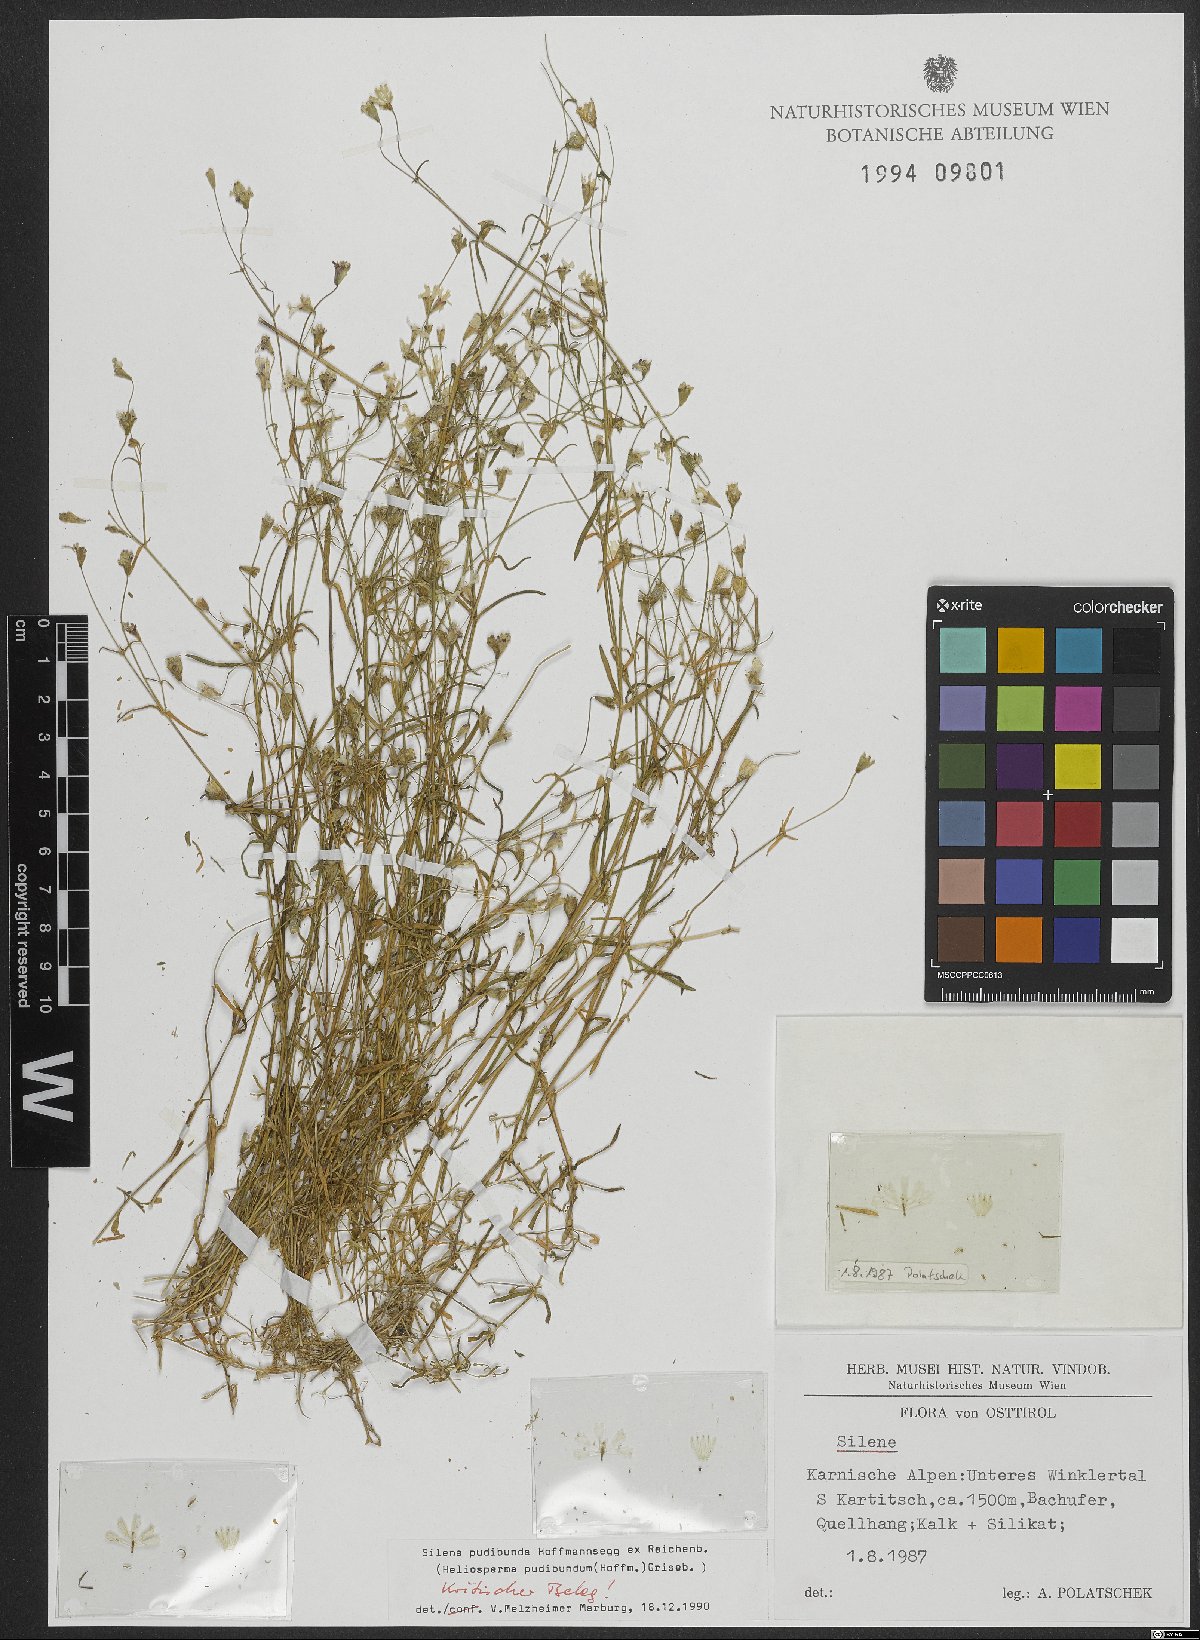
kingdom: Plantae
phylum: Tracheophyta
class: Magnoliopsida
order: Caryophyllales
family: Caryophyllaceae
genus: Heliosperma
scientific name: Heliosperma pudibundum
